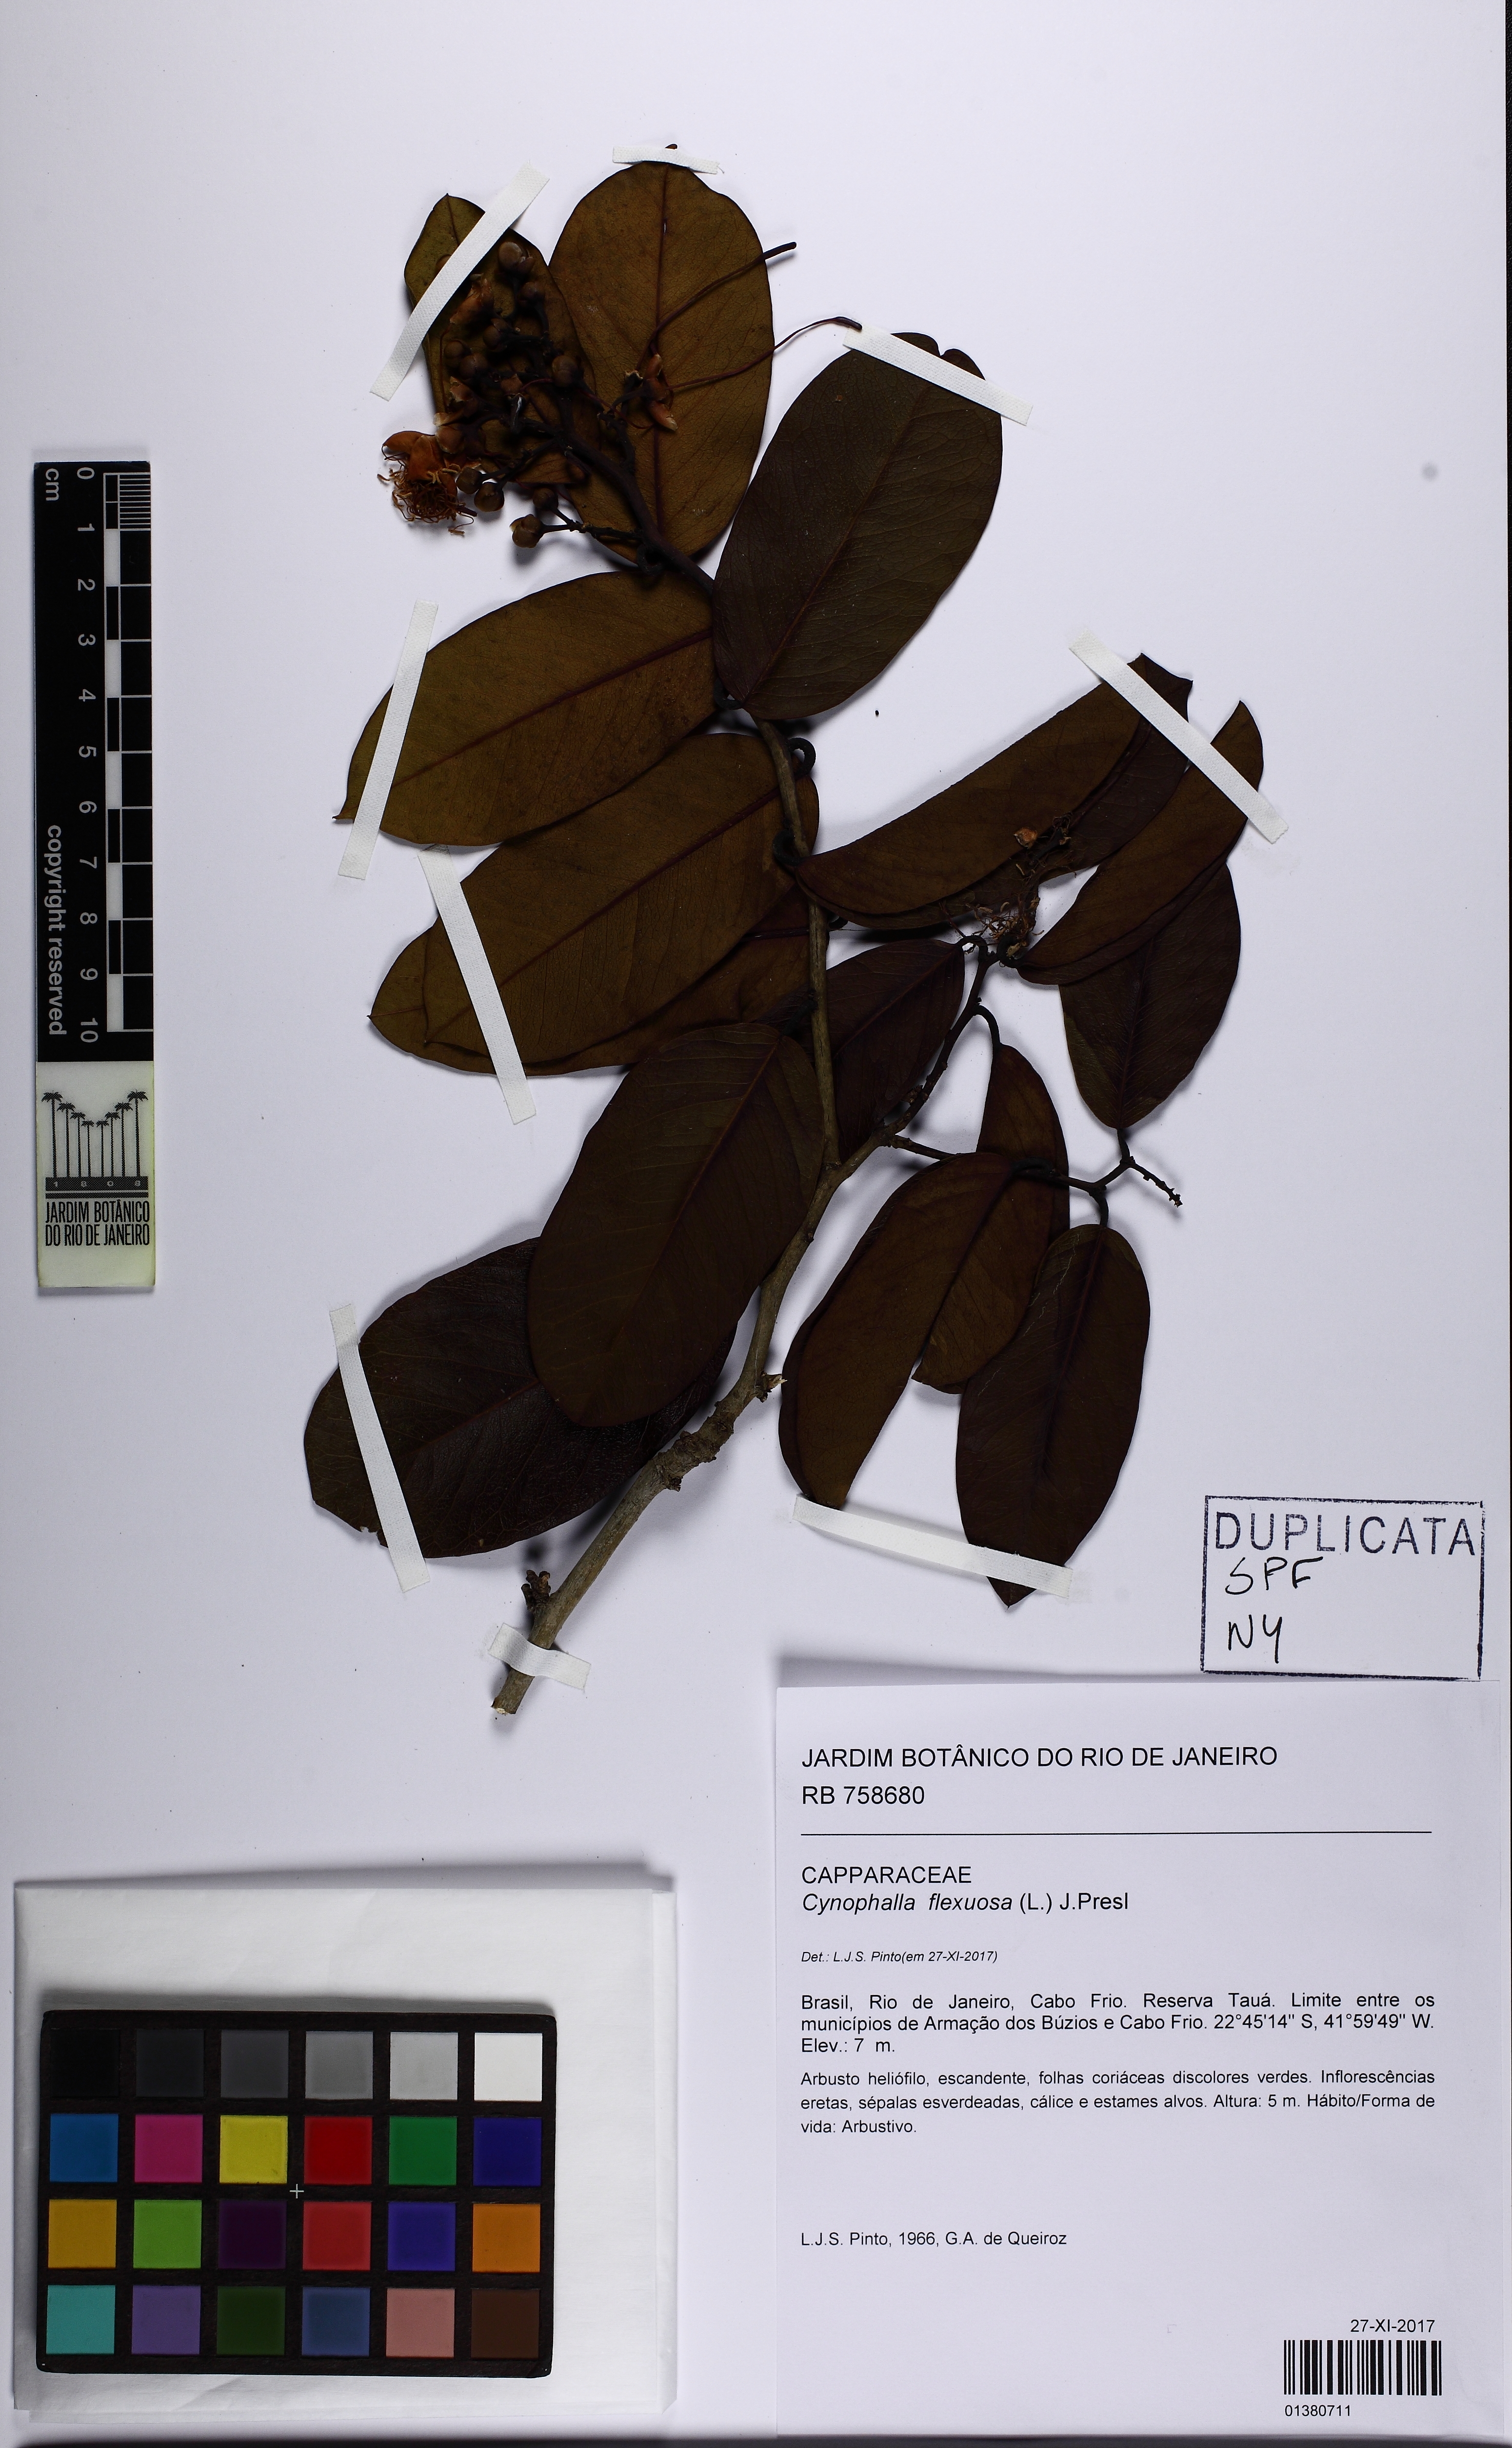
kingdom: Plantae
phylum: Tracheophyta
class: Magnoliopsida
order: Brassicales
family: Capparaceae
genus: Cynophalla
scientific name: Cynophalla flexuosa
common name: Capertree
